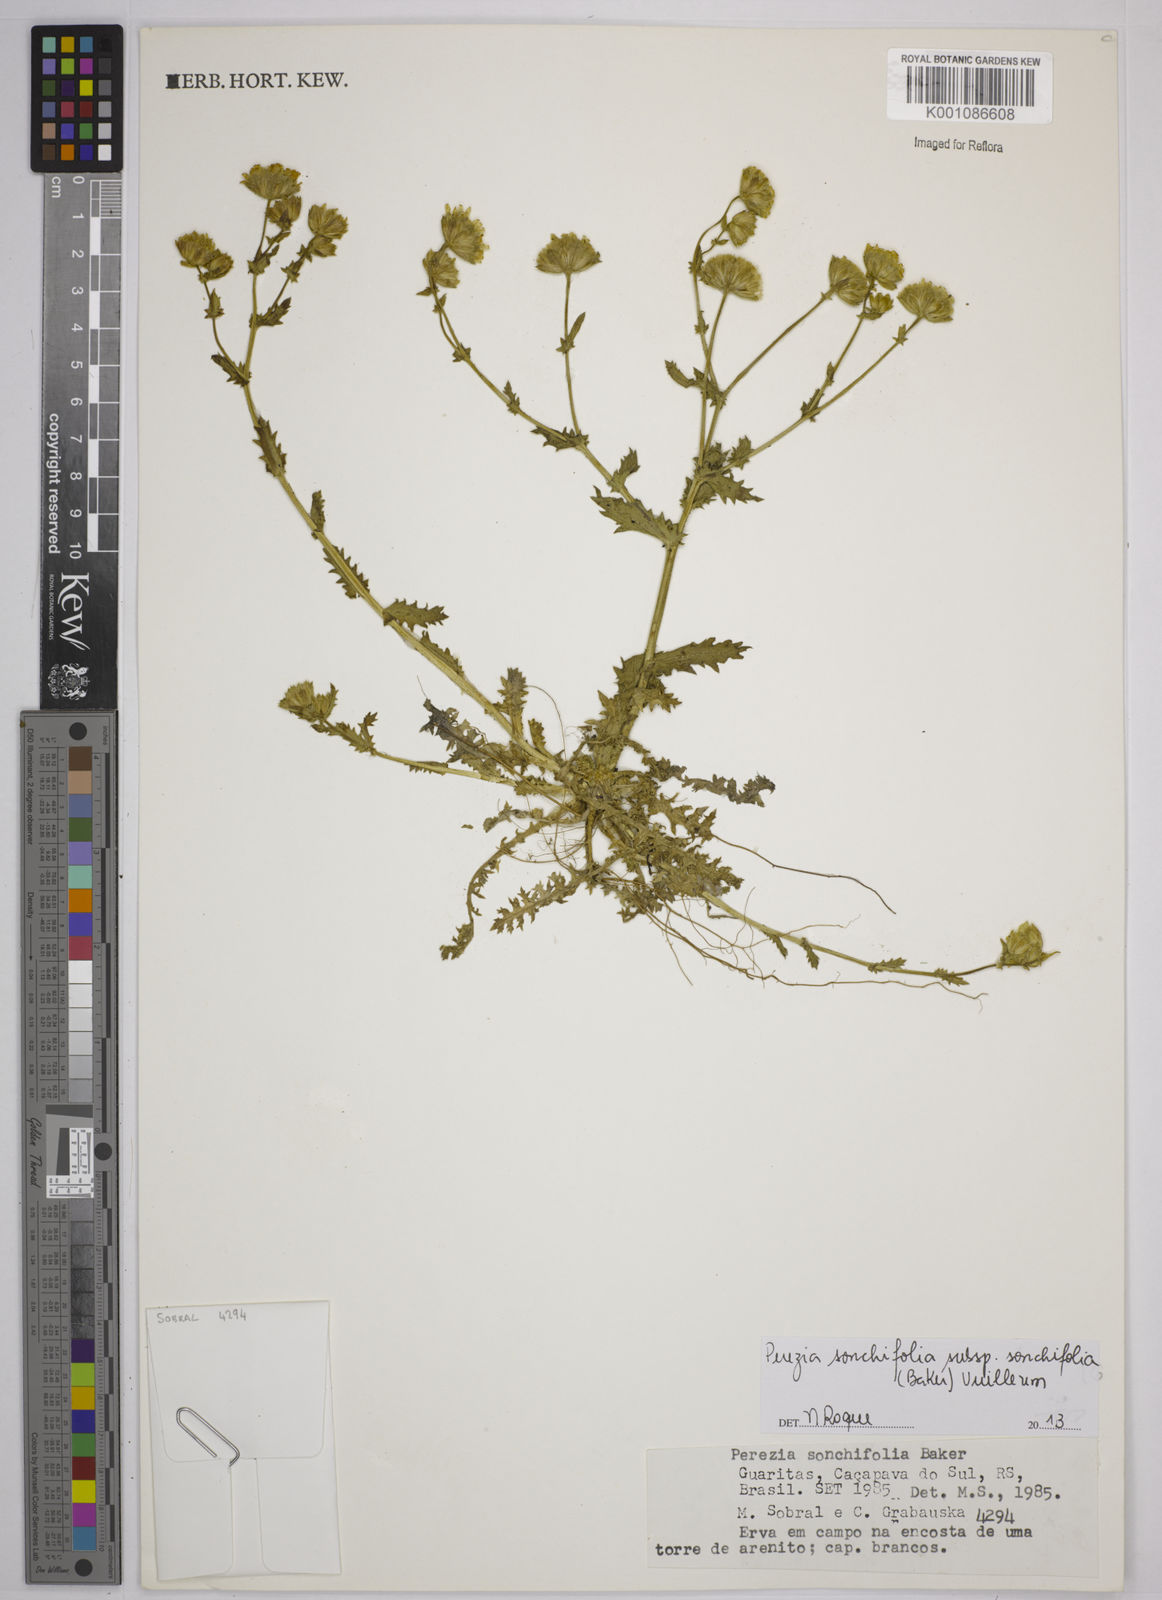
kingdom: Plantae
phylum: Tracheophyta
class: Magnoliopsida
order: Asterales
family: Asteraceae
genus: Perezia
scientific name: Perezia
